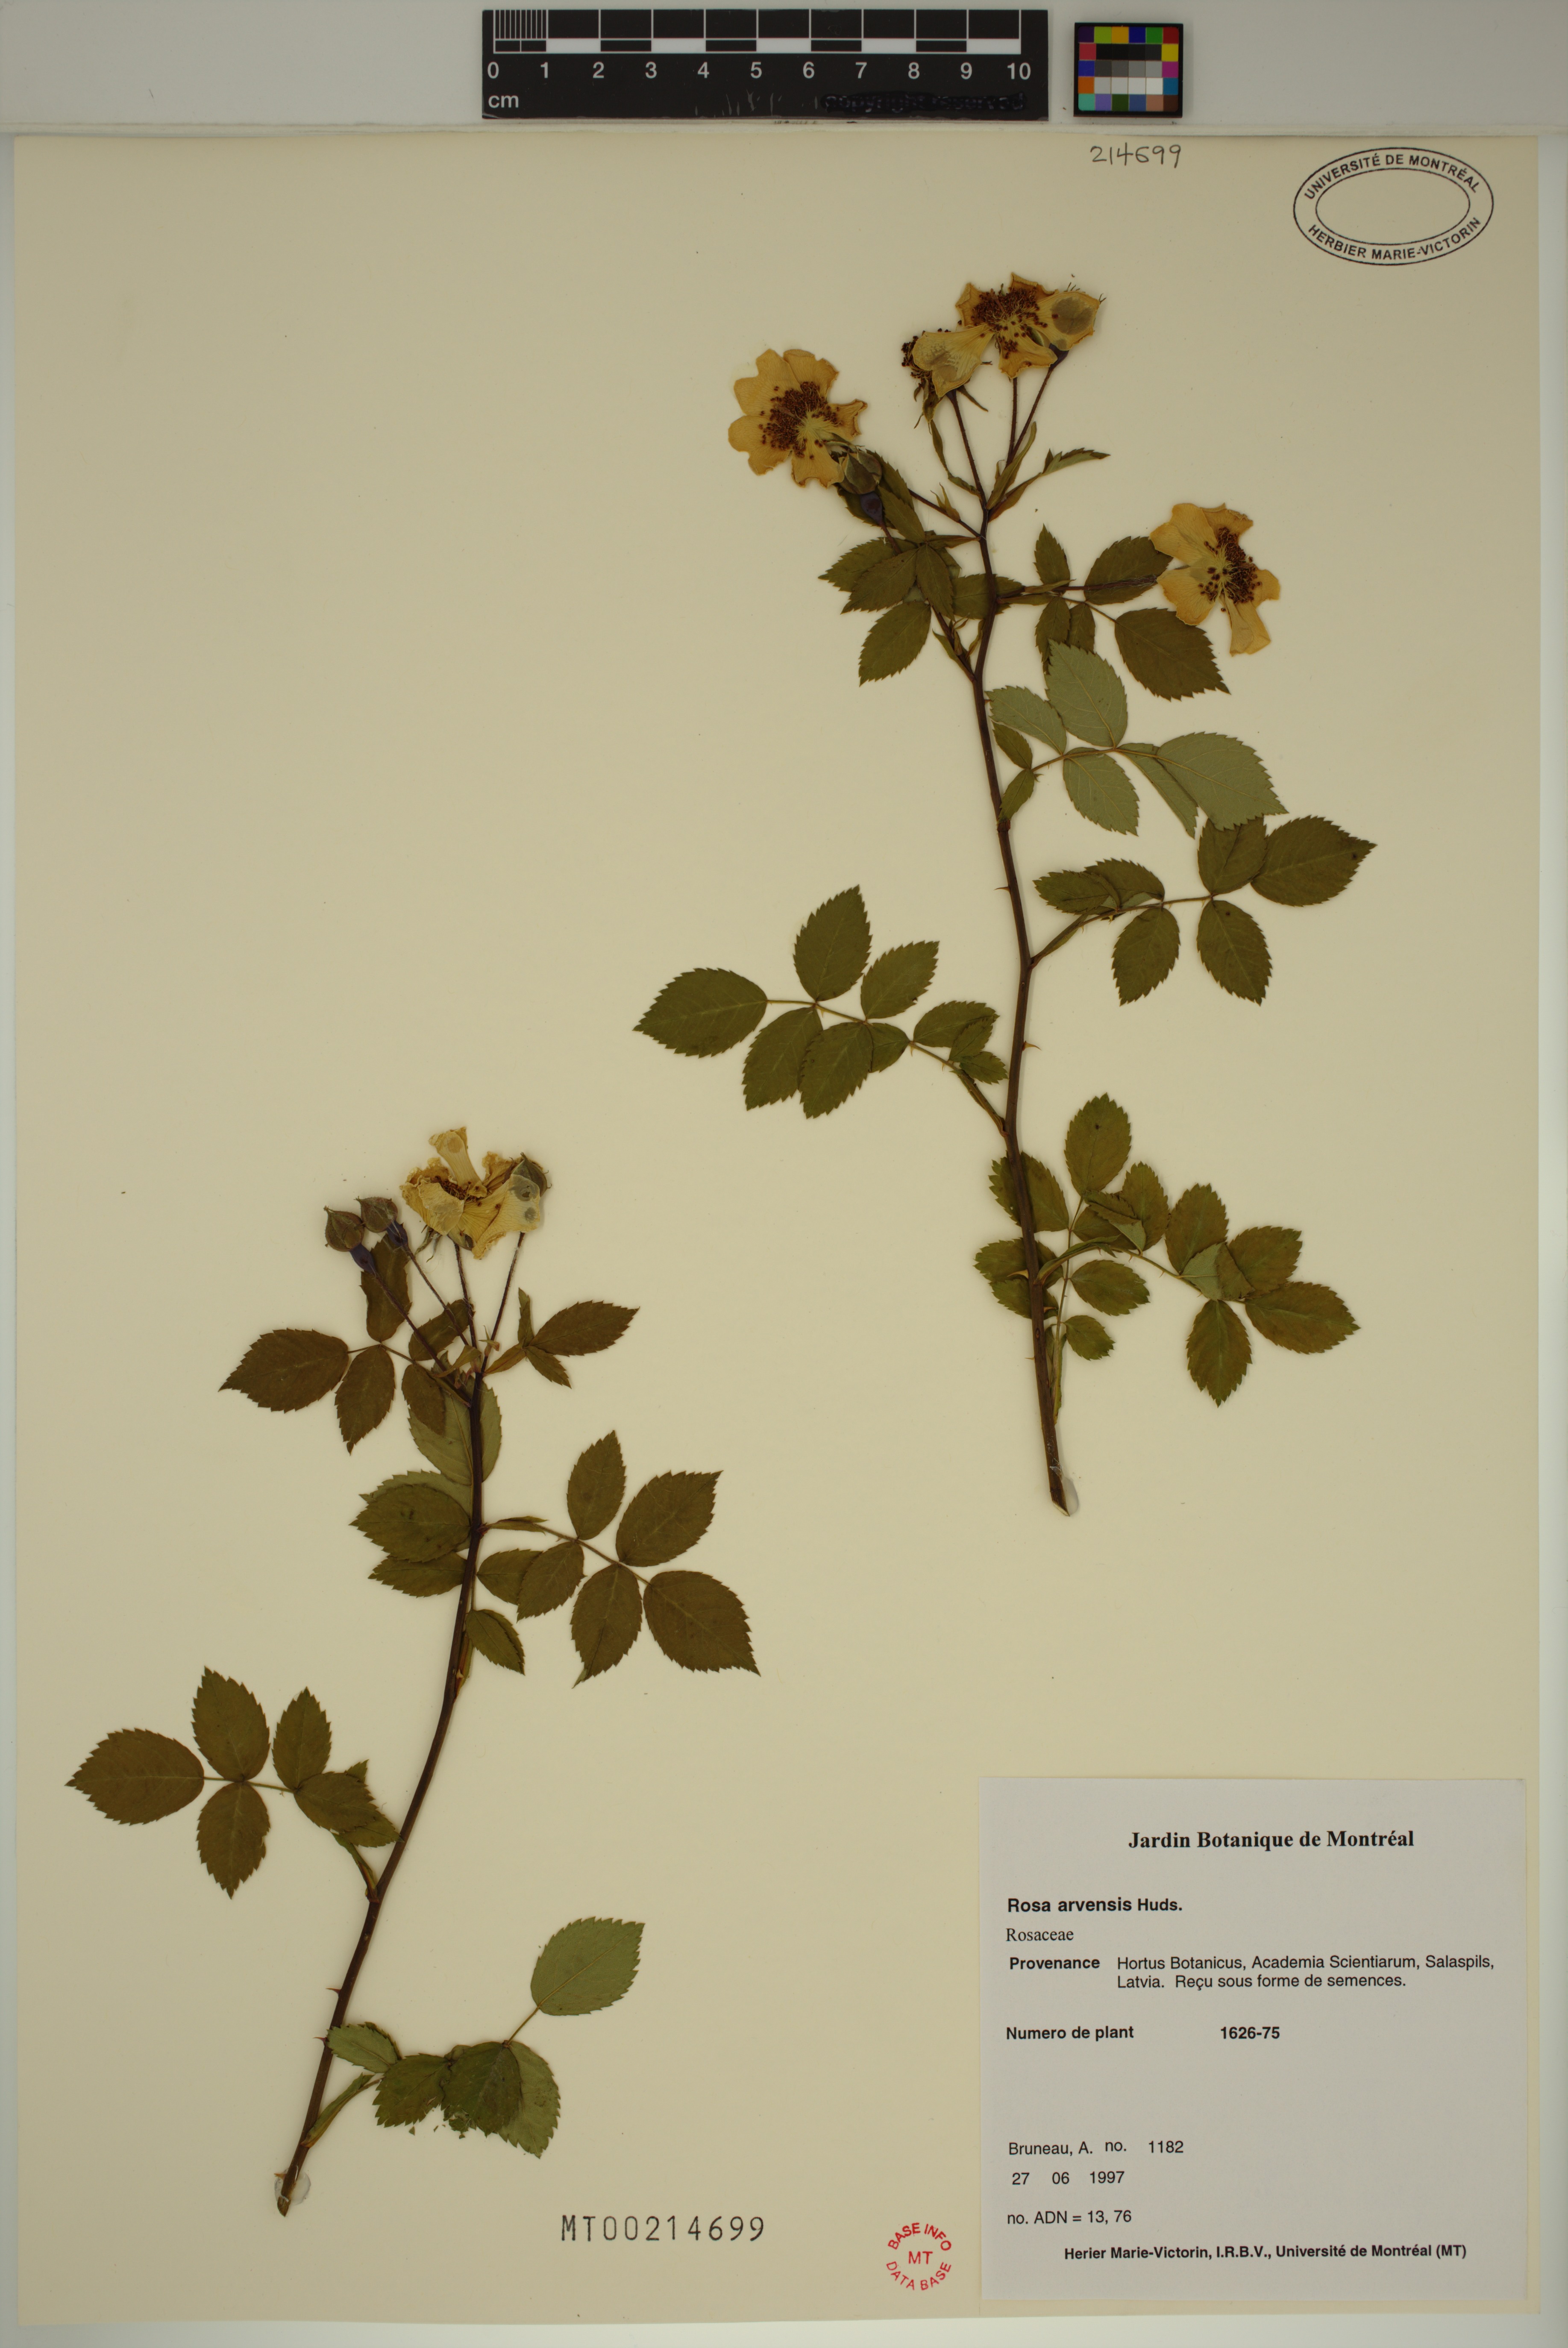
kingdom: Plantae
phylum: Tracheophyta
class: Magnoliopsida
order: Rosales
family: Rosaceae
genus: Rosa
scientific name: Rosa arvensis
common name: Field rose
